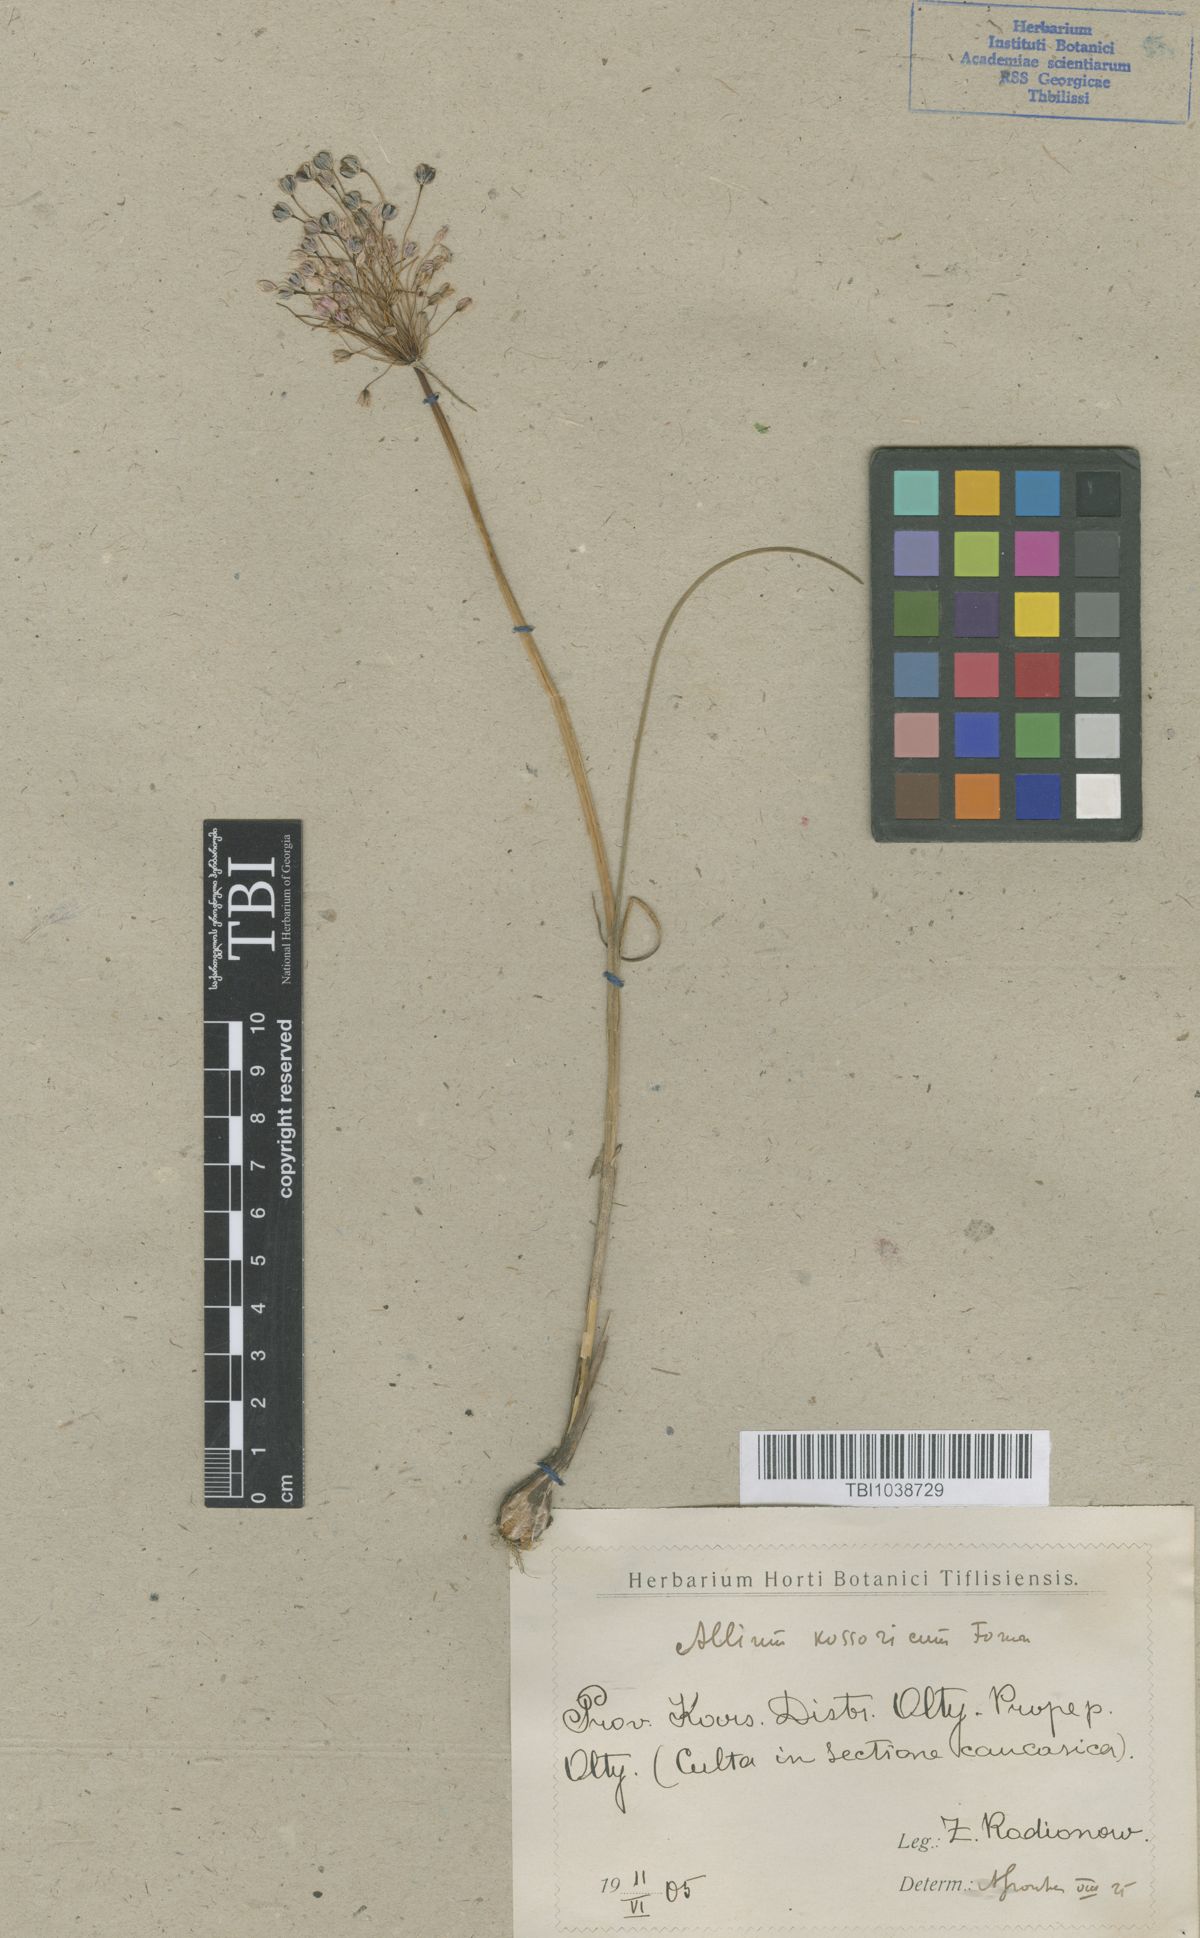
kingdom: Plantae
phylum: Tracheophyta
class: Liliopsida
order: Asparagales
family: Amaryllidaceae
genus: Allium
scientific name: Allium kossoricum
